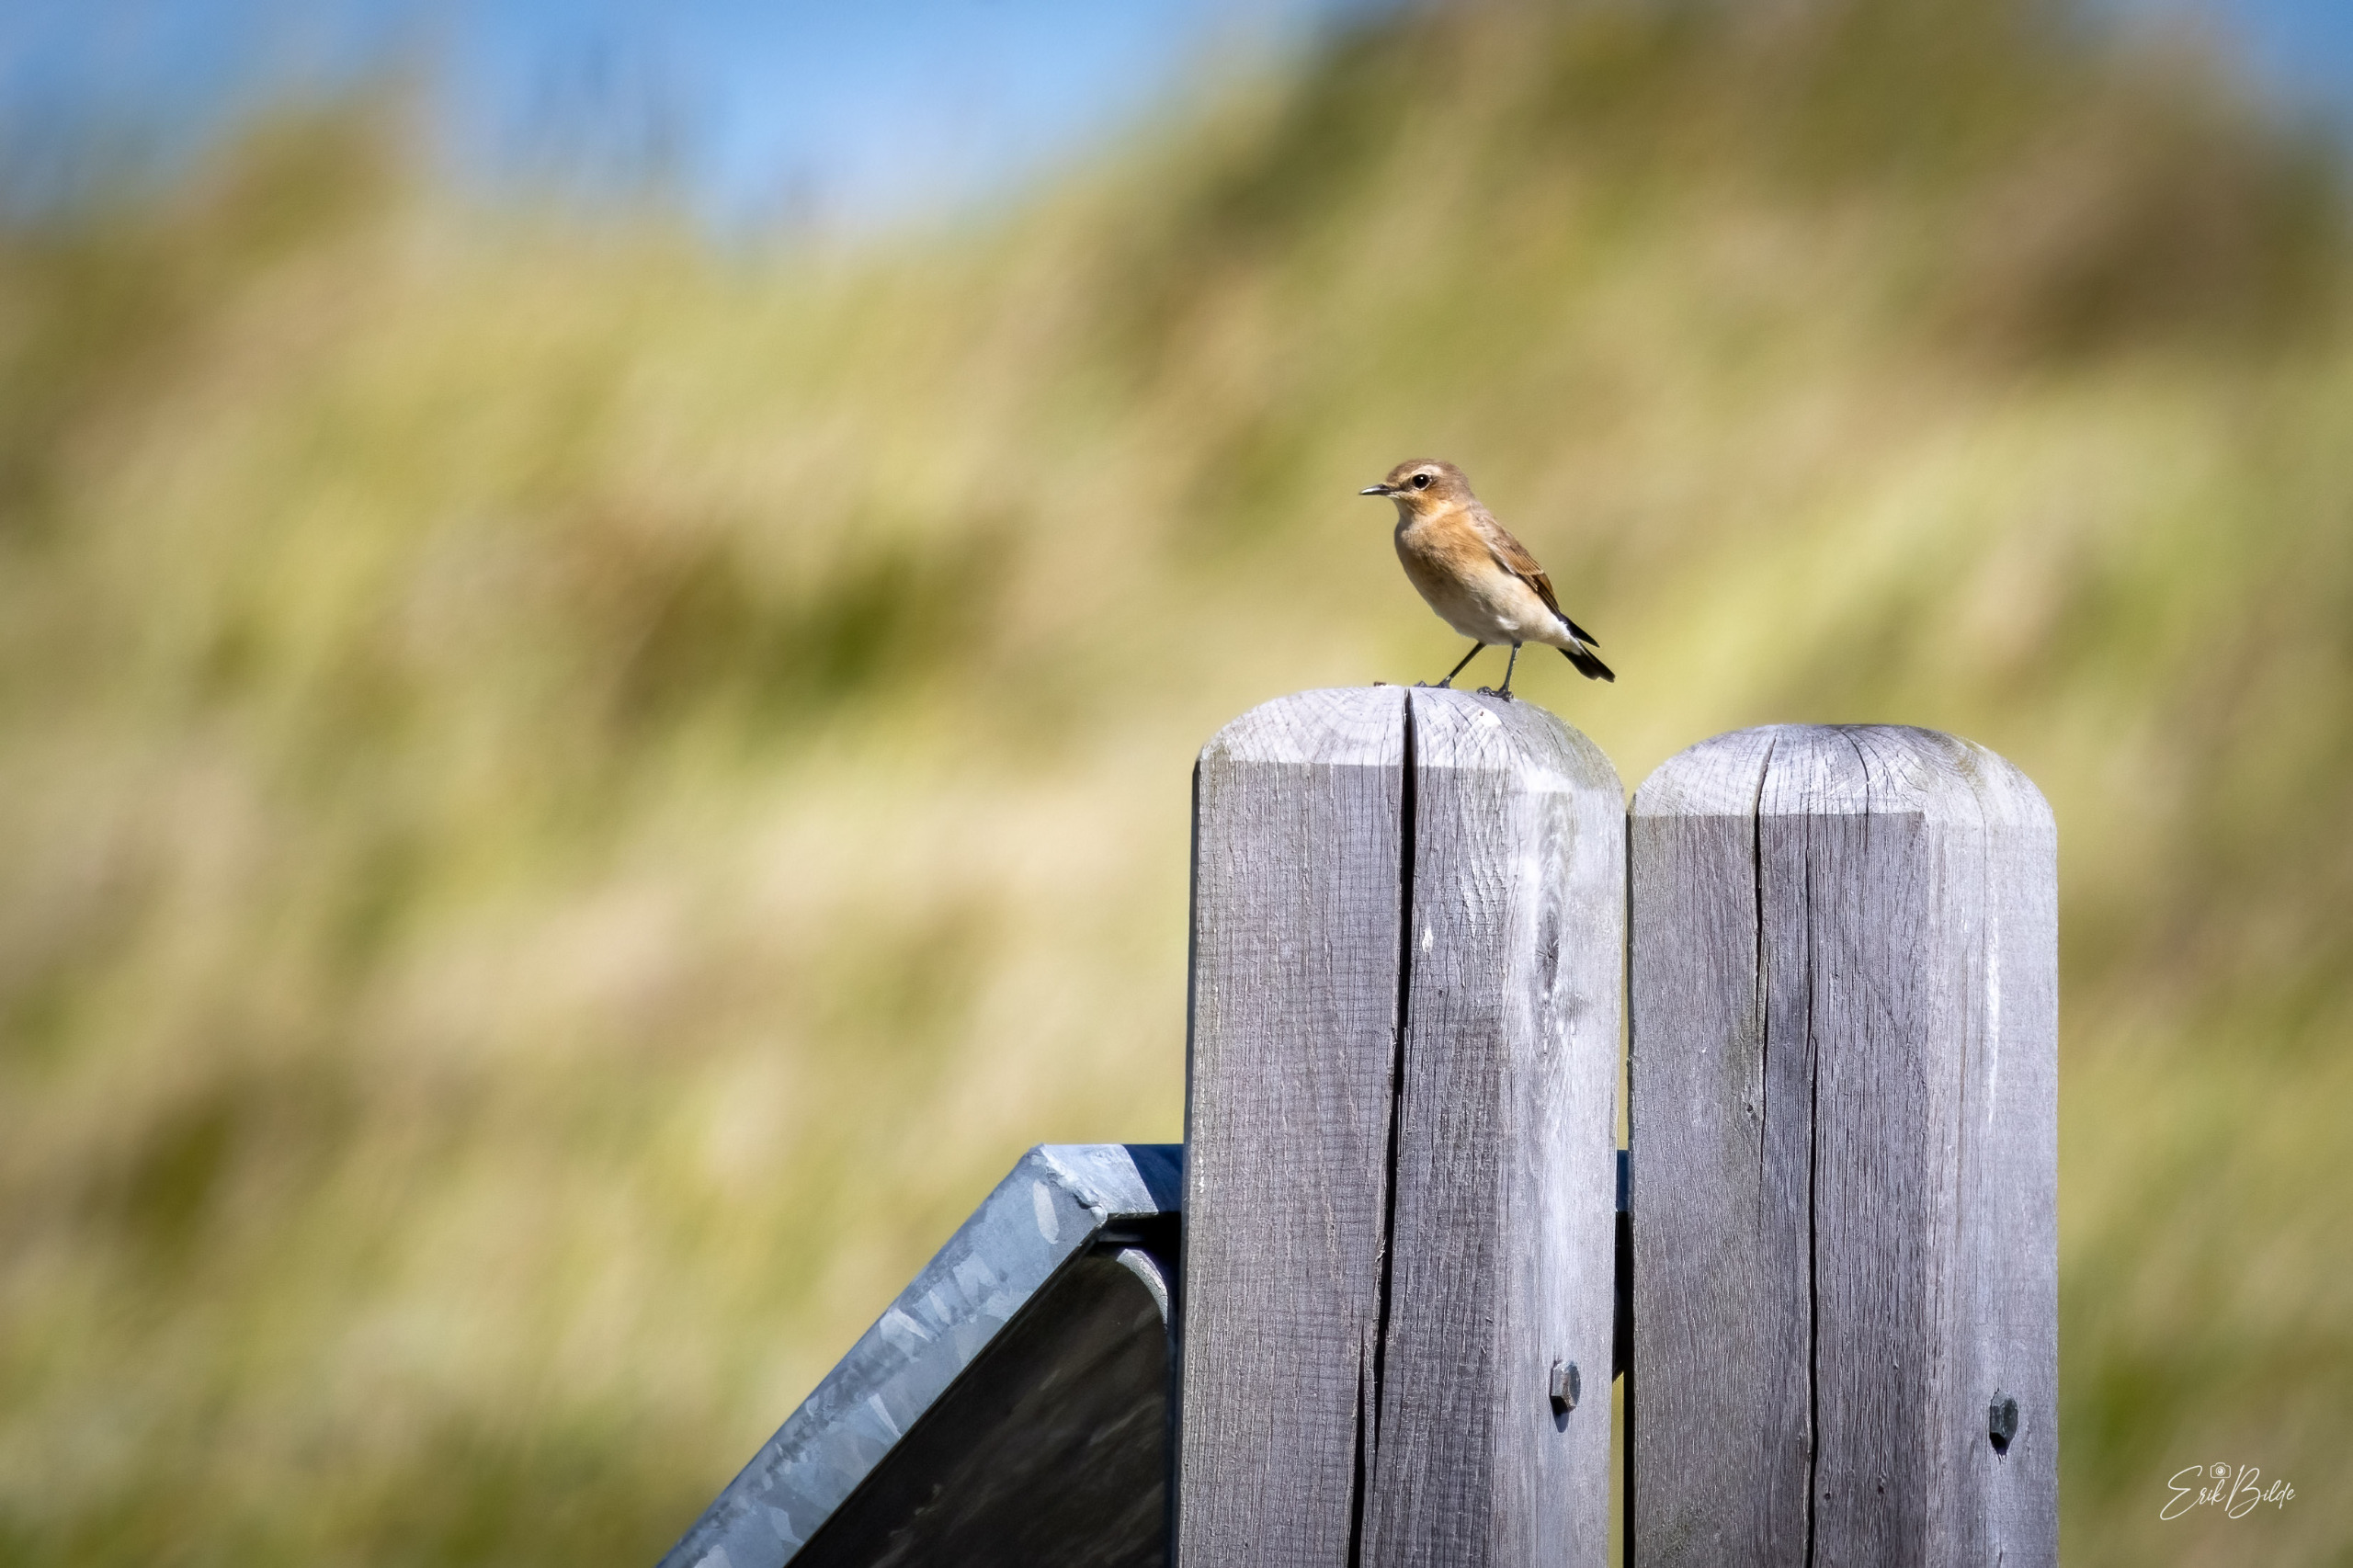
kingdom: Animalia
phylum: Chordata
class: Aves
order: Passeriformes
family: Muscicapidae
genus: Oenanthe
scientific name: Oenanthe oenanthe
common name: Stenpikker
